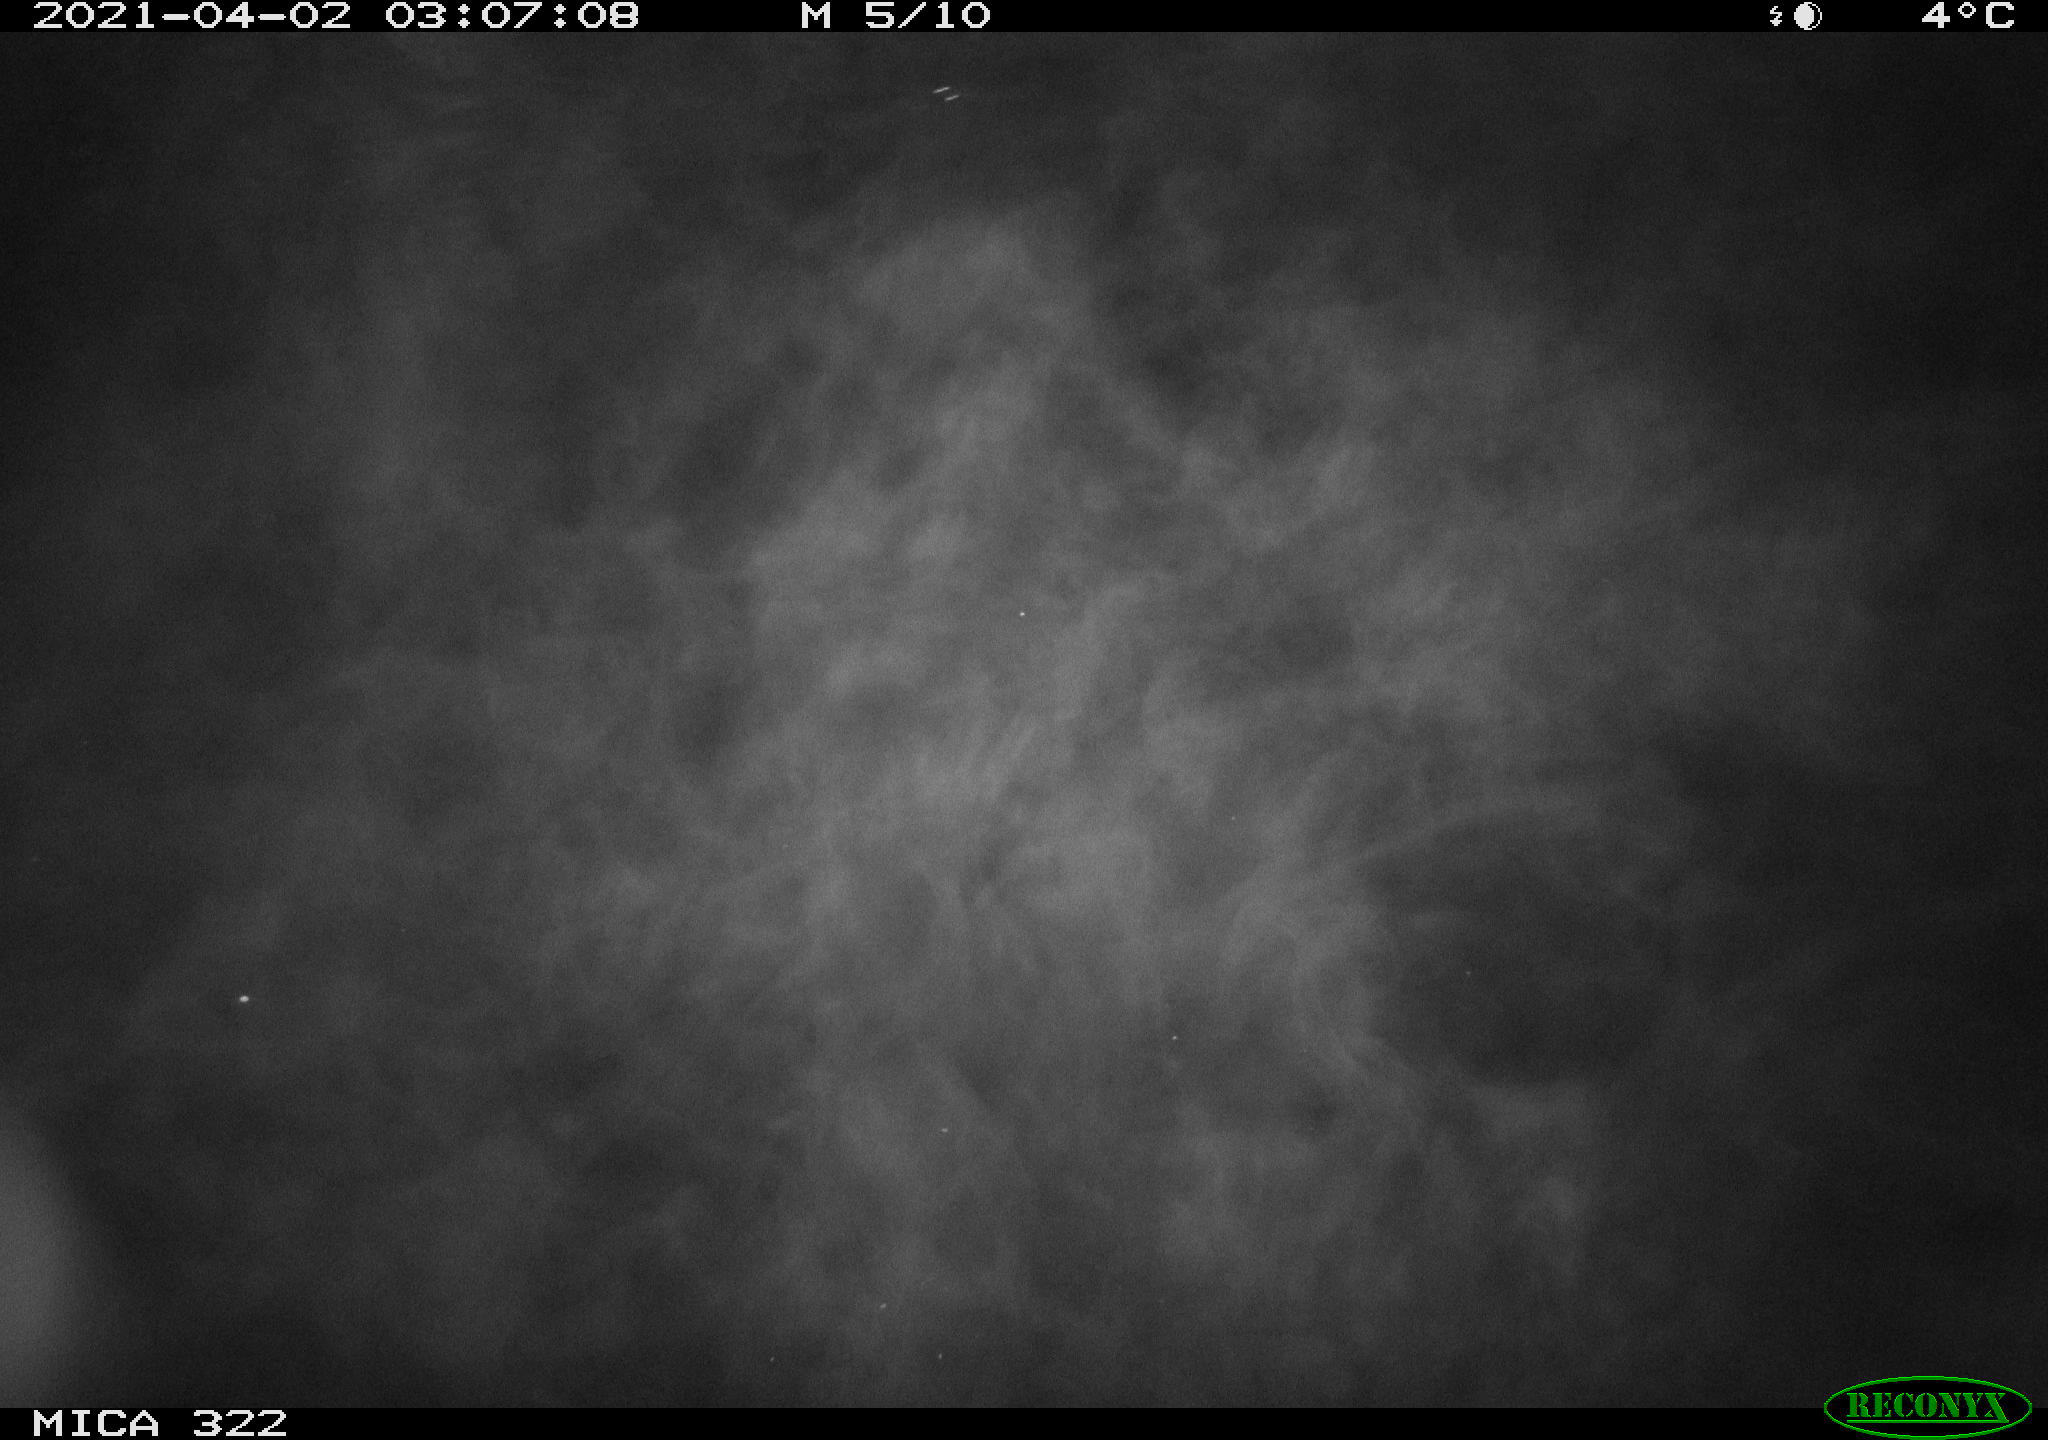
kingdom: Animalia
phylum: Chordata
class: Aves
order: Anseriformes
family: Anatidae
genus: Anas
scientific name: Anas platyrhynchos
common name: Mallard
